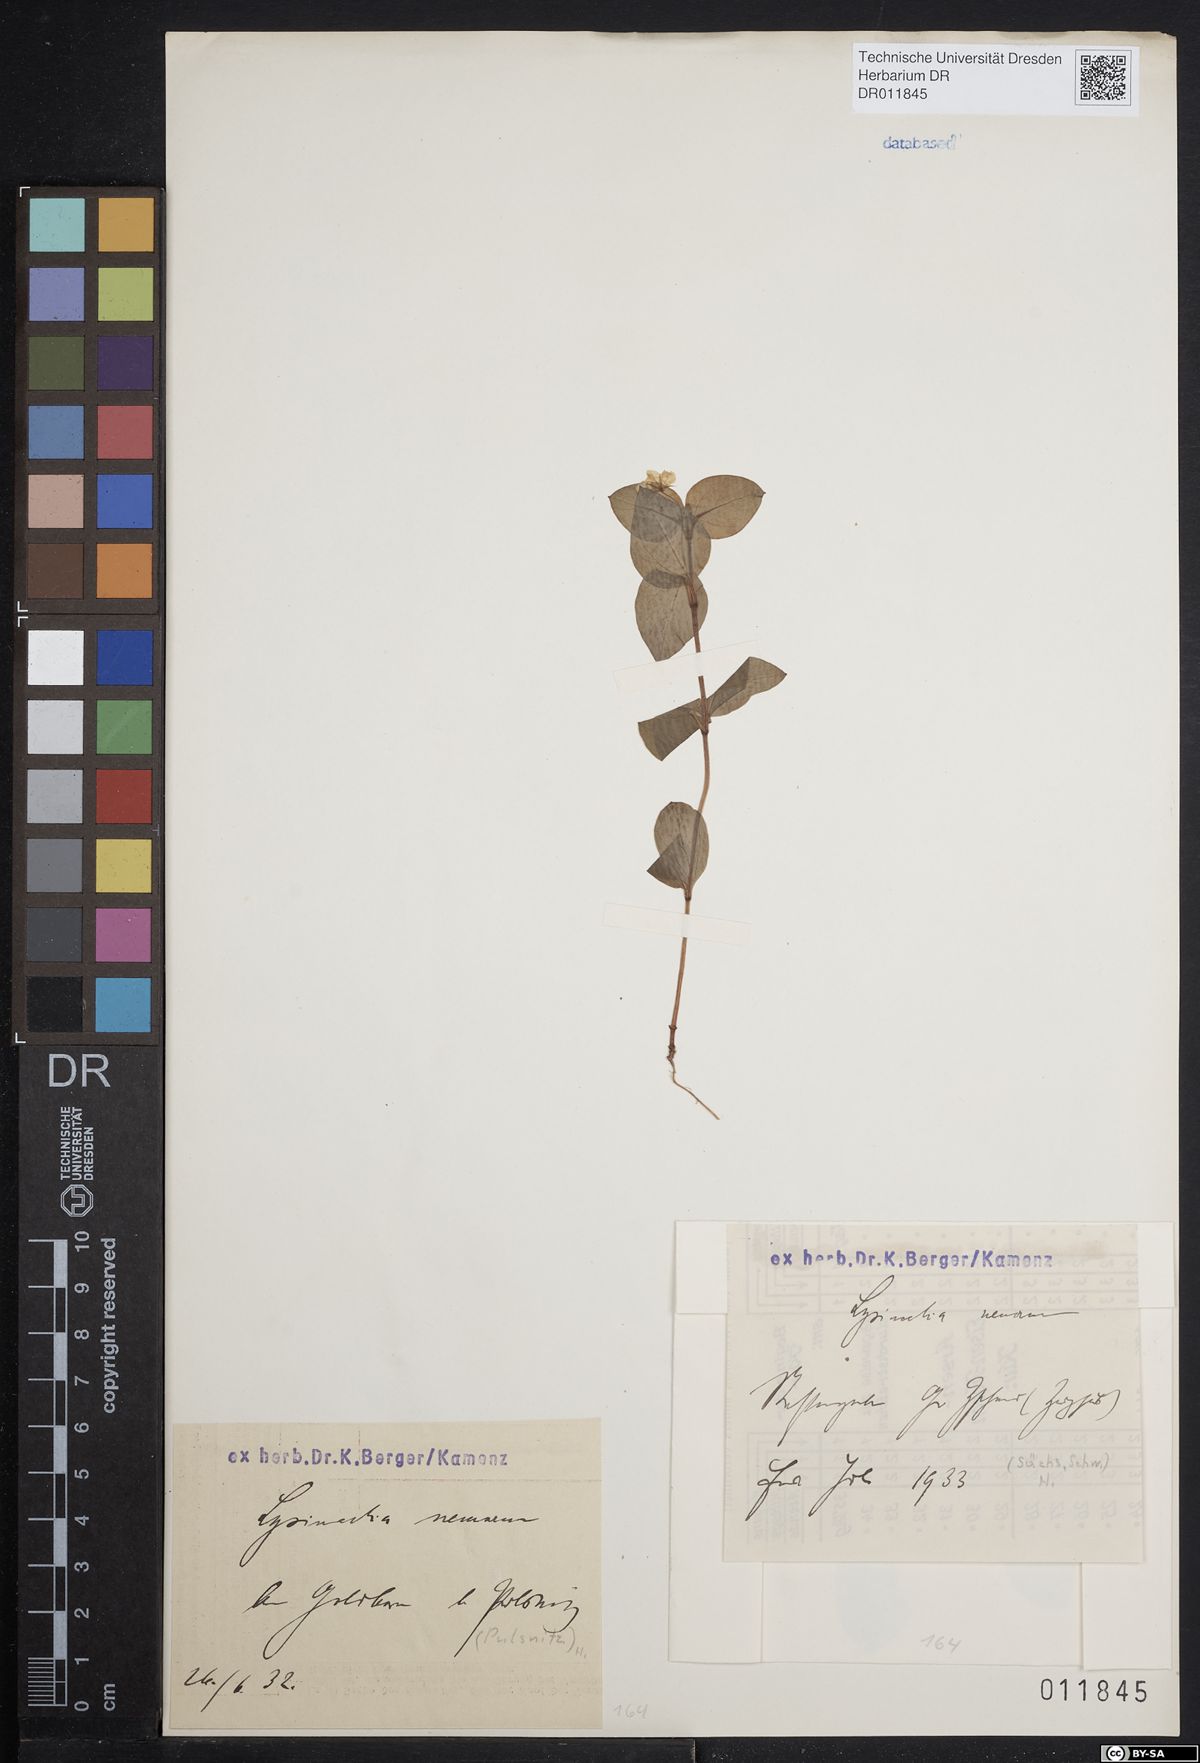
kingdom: Plantae
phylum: Tracheophyta
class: Magnoliopsida
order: Ericales
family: Primulaceae
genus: Lysimachia
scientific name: Lysimachia nemorum
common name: Yellow pimpernel
